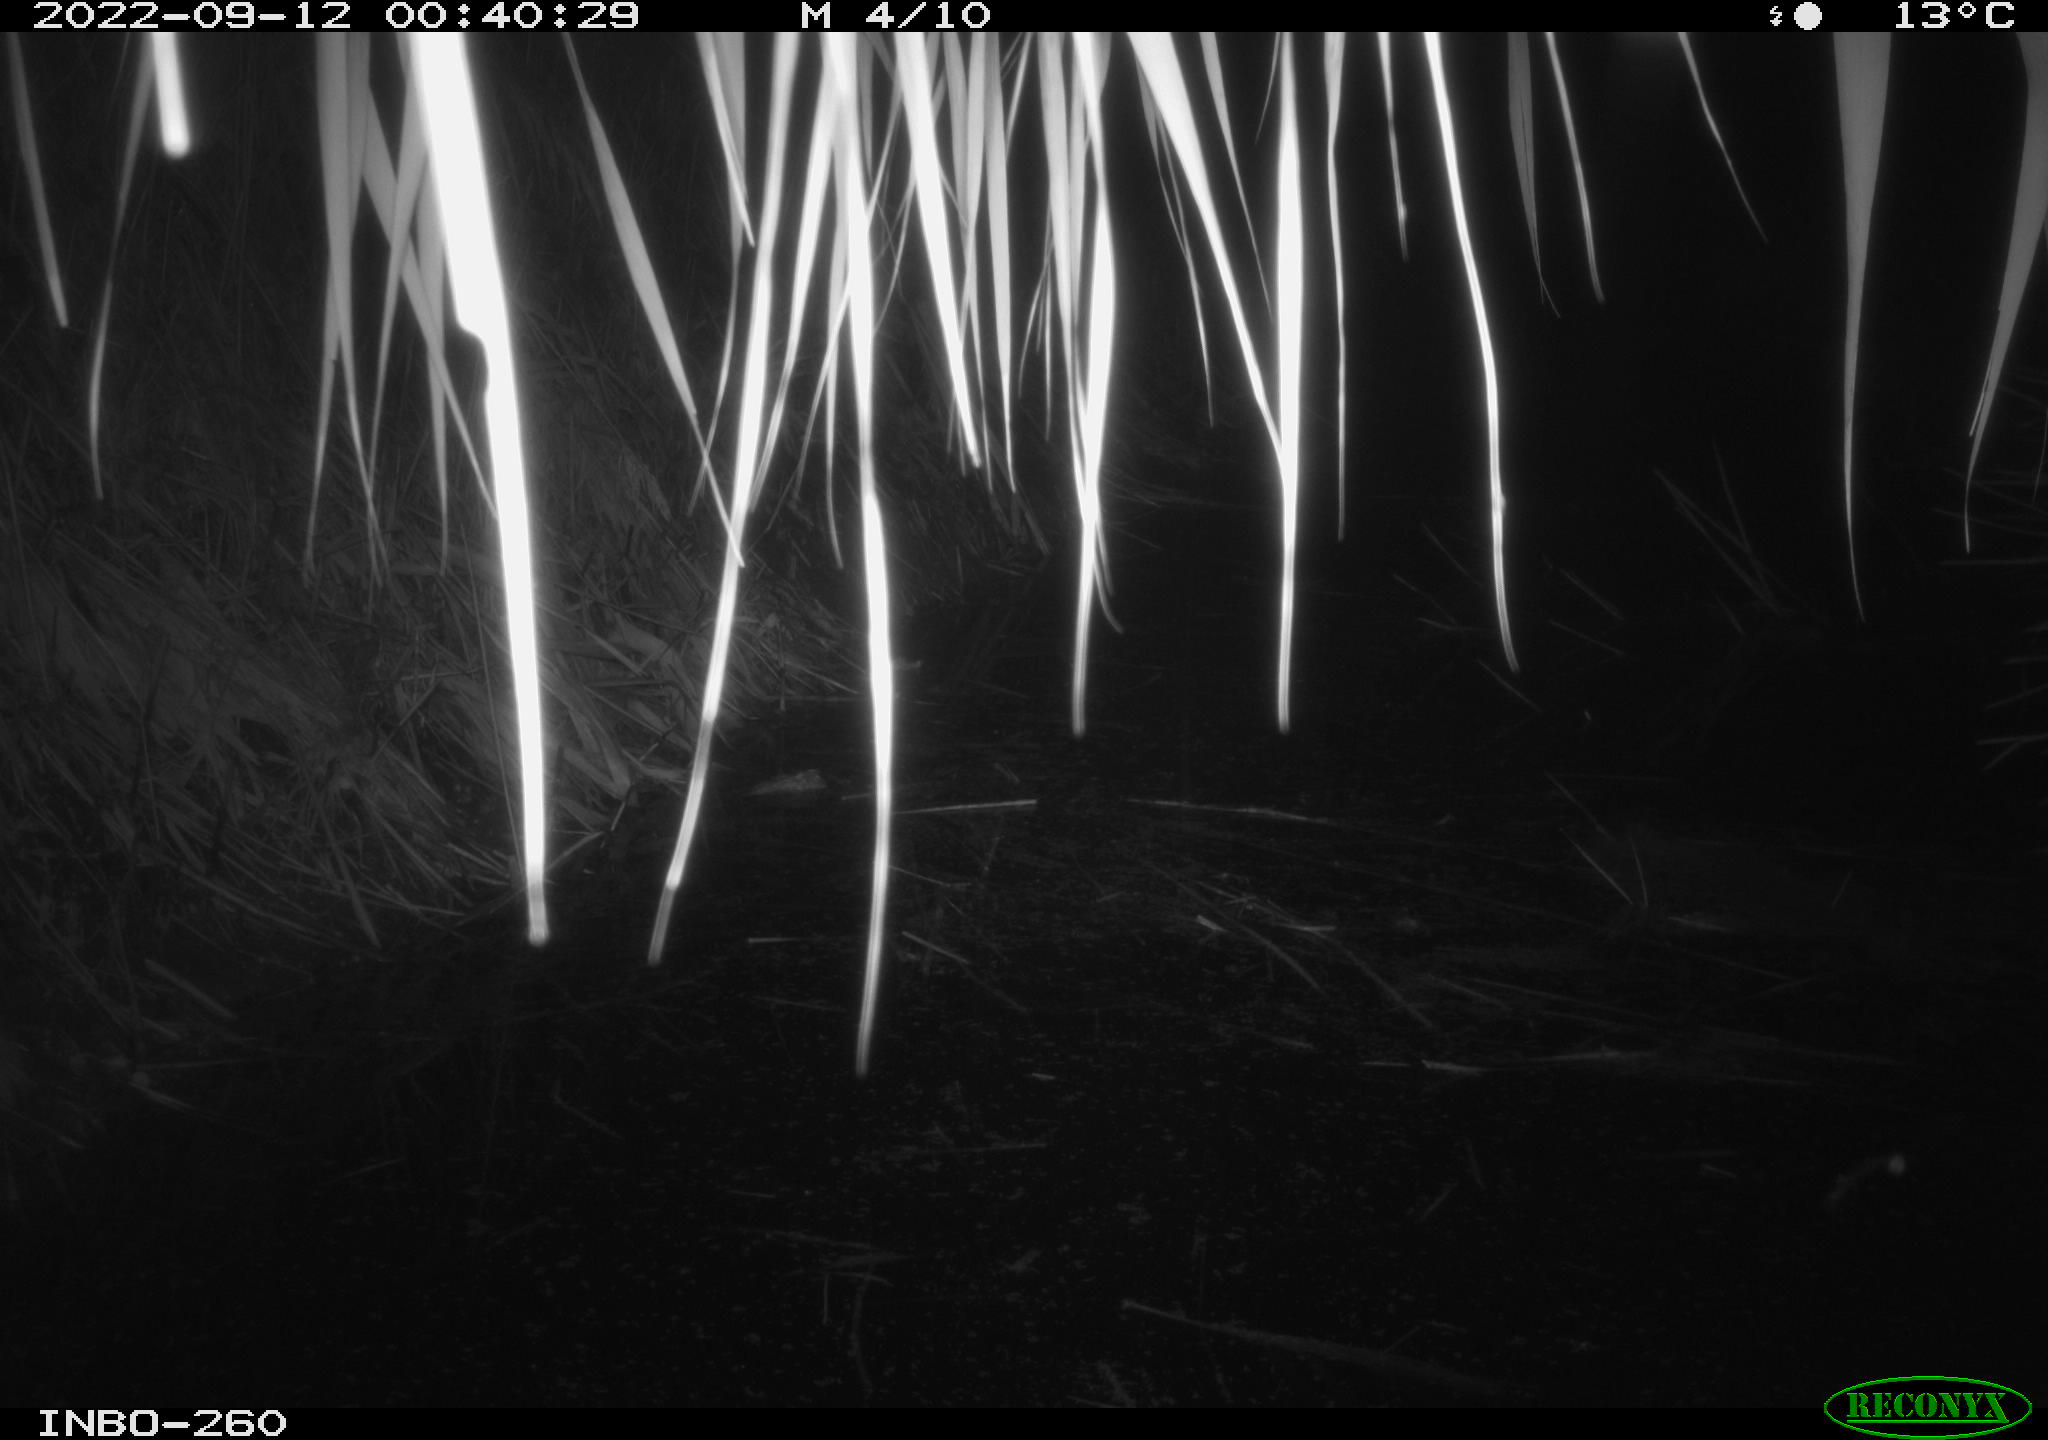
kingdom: Animalia
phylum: Chordata
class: Mammalia
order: Rodentia
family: Muridae
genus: Rattus
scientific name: Rattus norvegicus
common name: Brown rat
